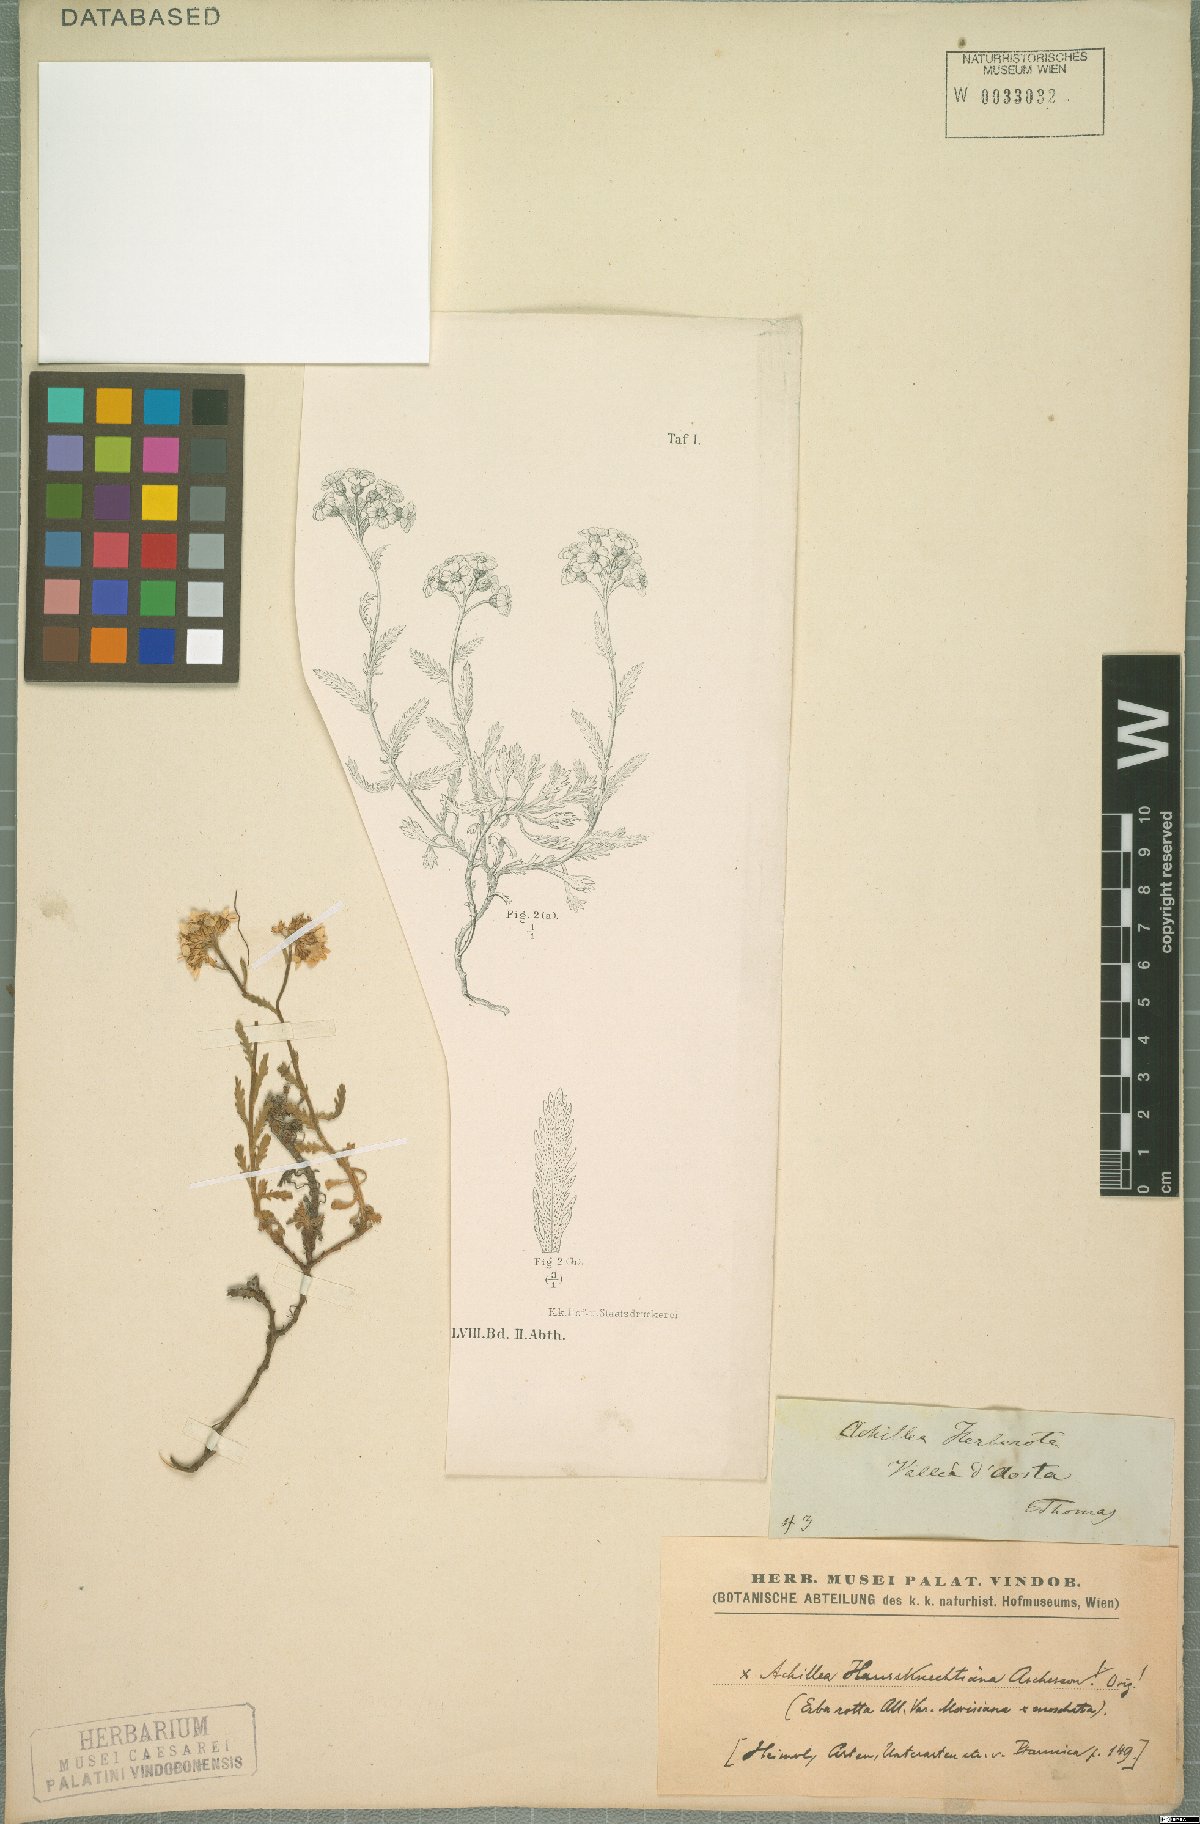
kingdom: Plantae
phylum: Tracheophyta
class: Magnoliopsida
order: Asterales
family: Asteraceae
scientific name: Asteraceae
